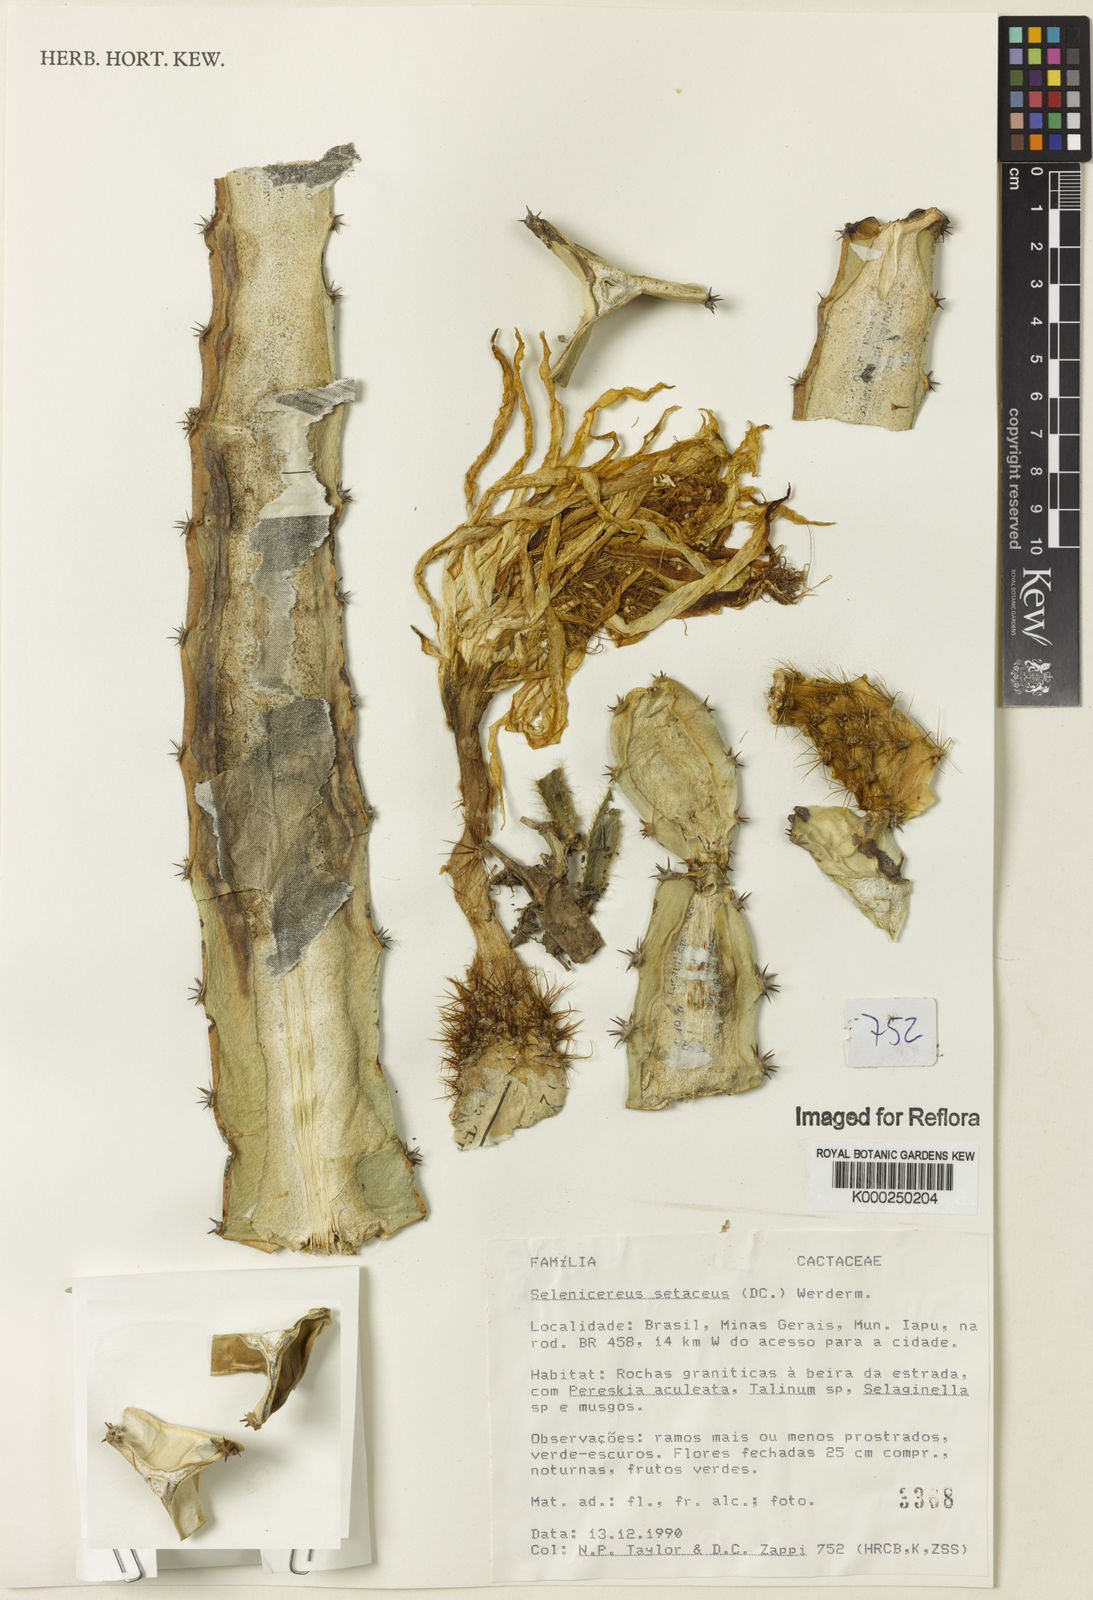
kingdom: Plantae
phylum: Tracheophyta
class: Magnoliopsida
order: Caryophyllales
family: Cactaceae
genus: Selenicereus
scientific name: Selenicereus
